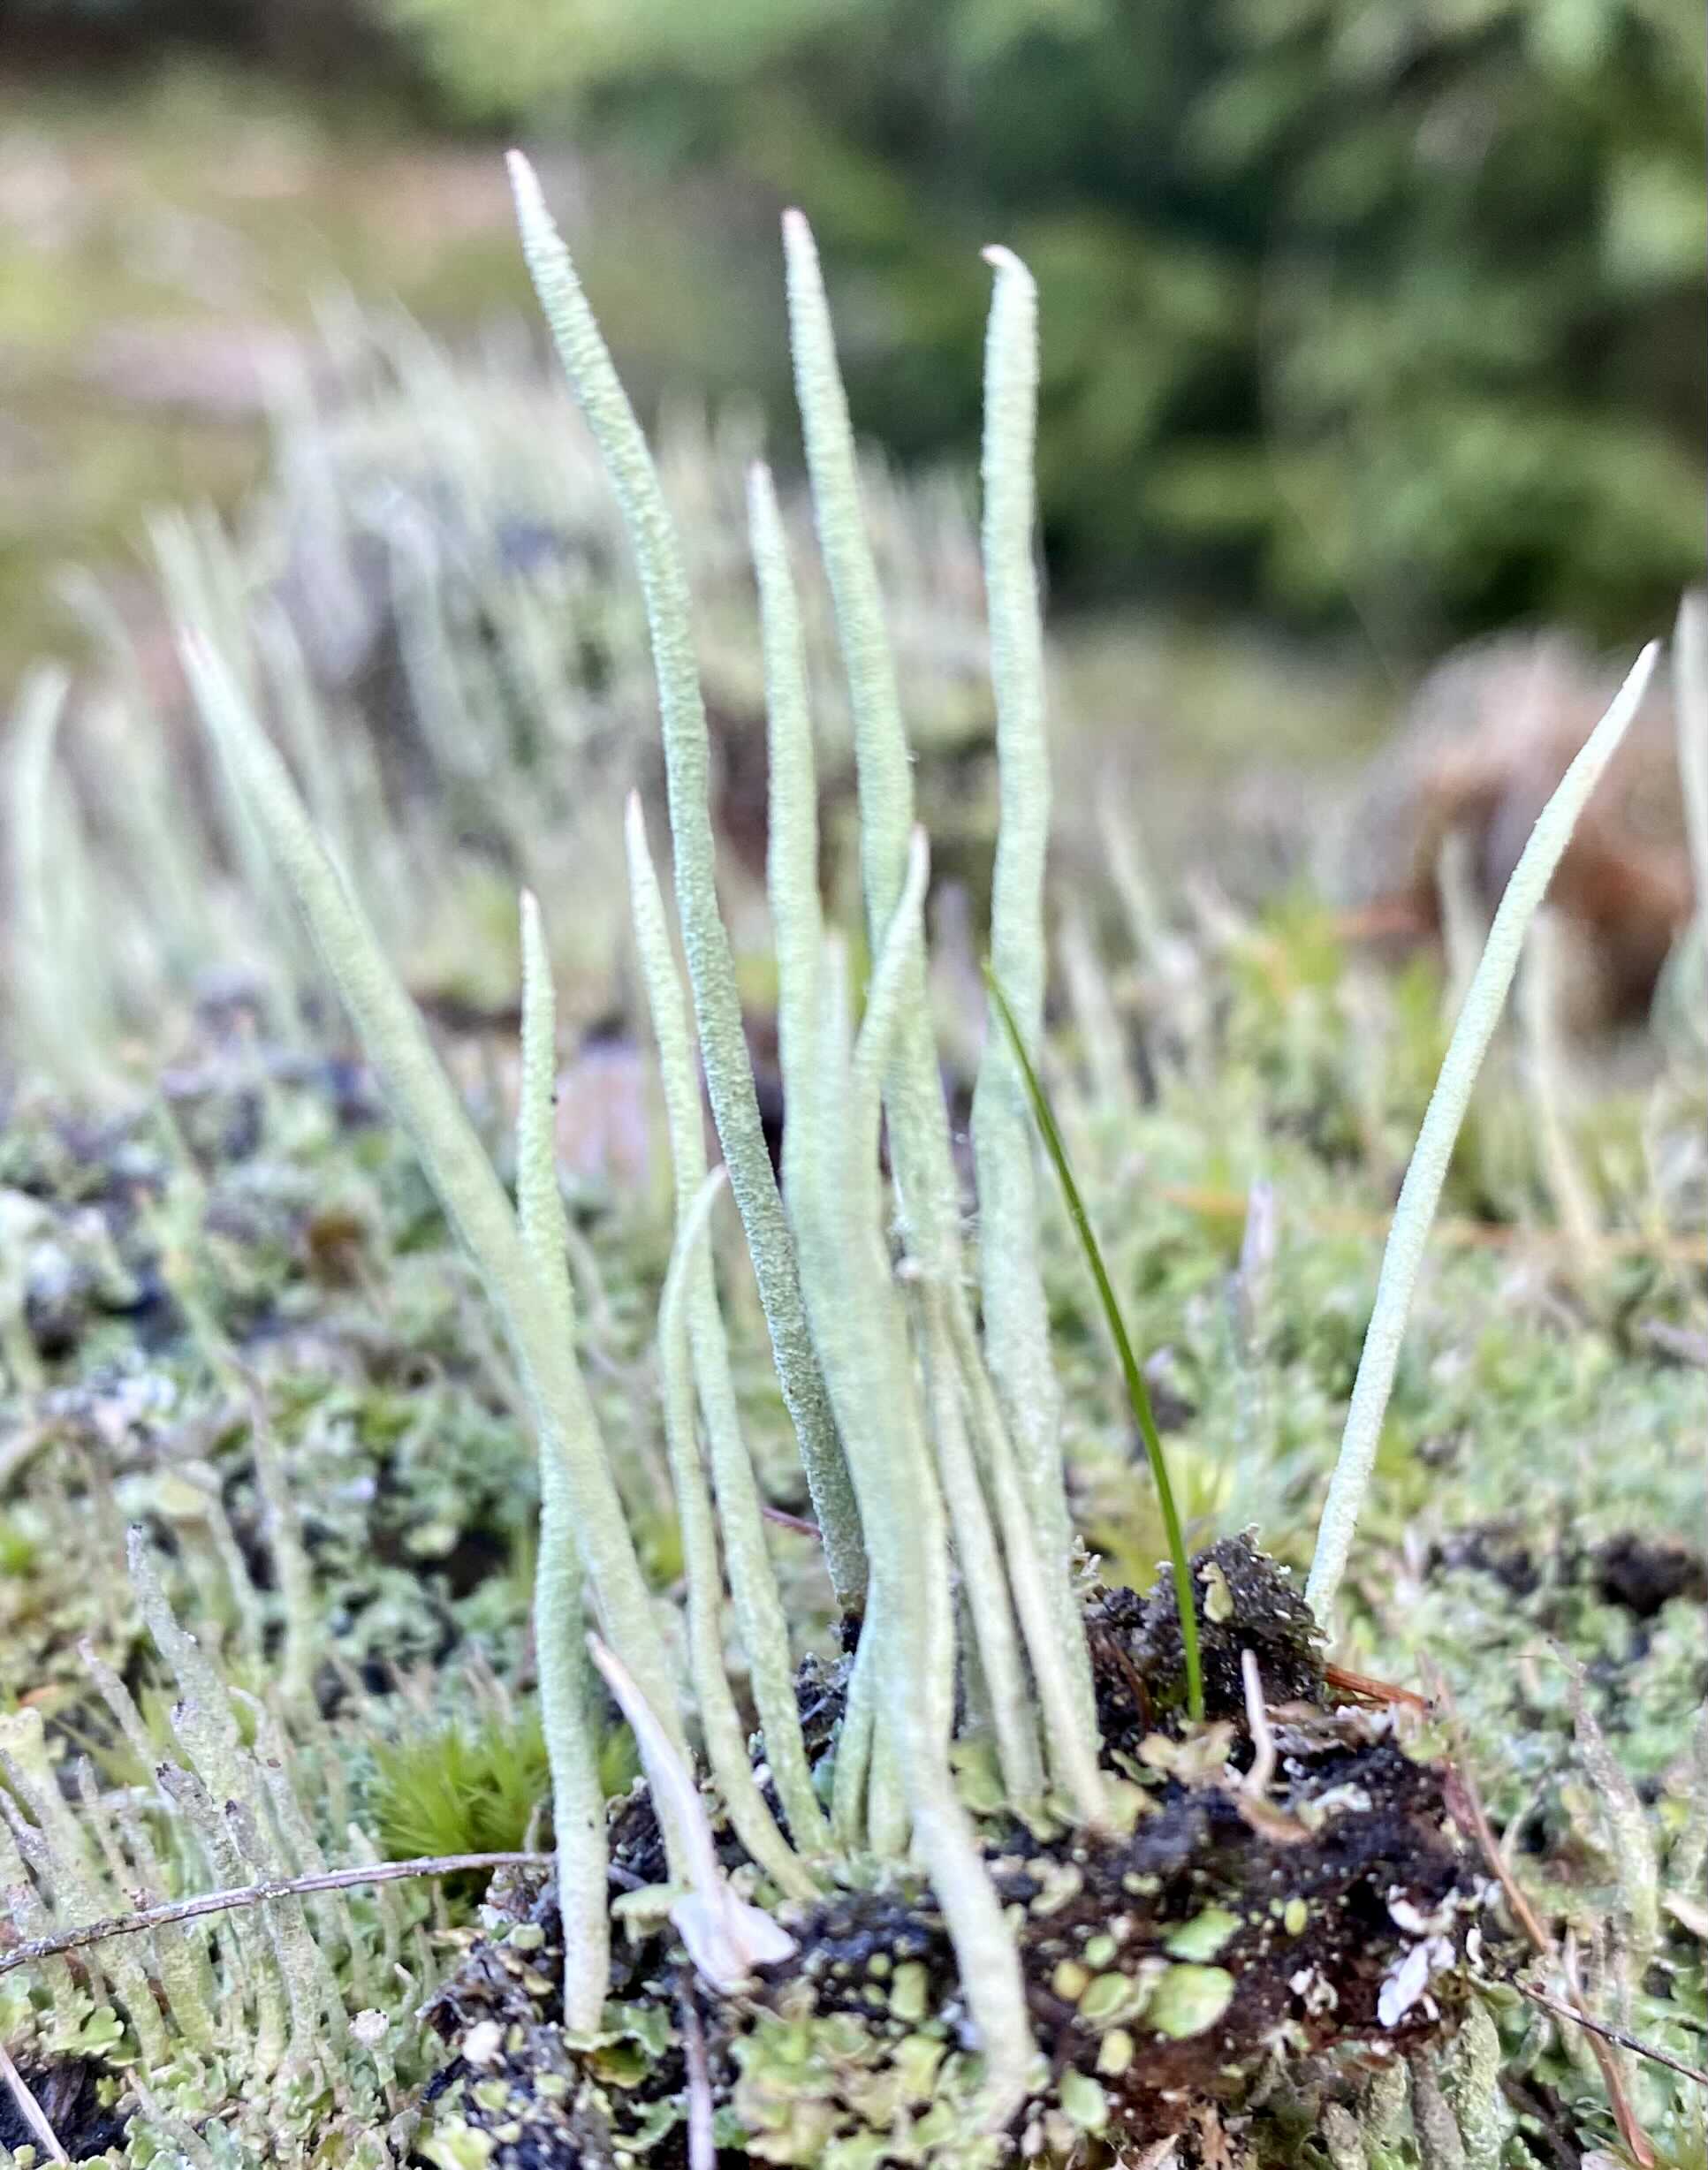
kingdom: Fungi
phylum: Ascomycota
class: Lecanoromycetes
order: Lecanorales
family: Cladoniaceae
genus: Cladonia
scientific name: Cladonia cornuta
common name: syl-bægerlav
